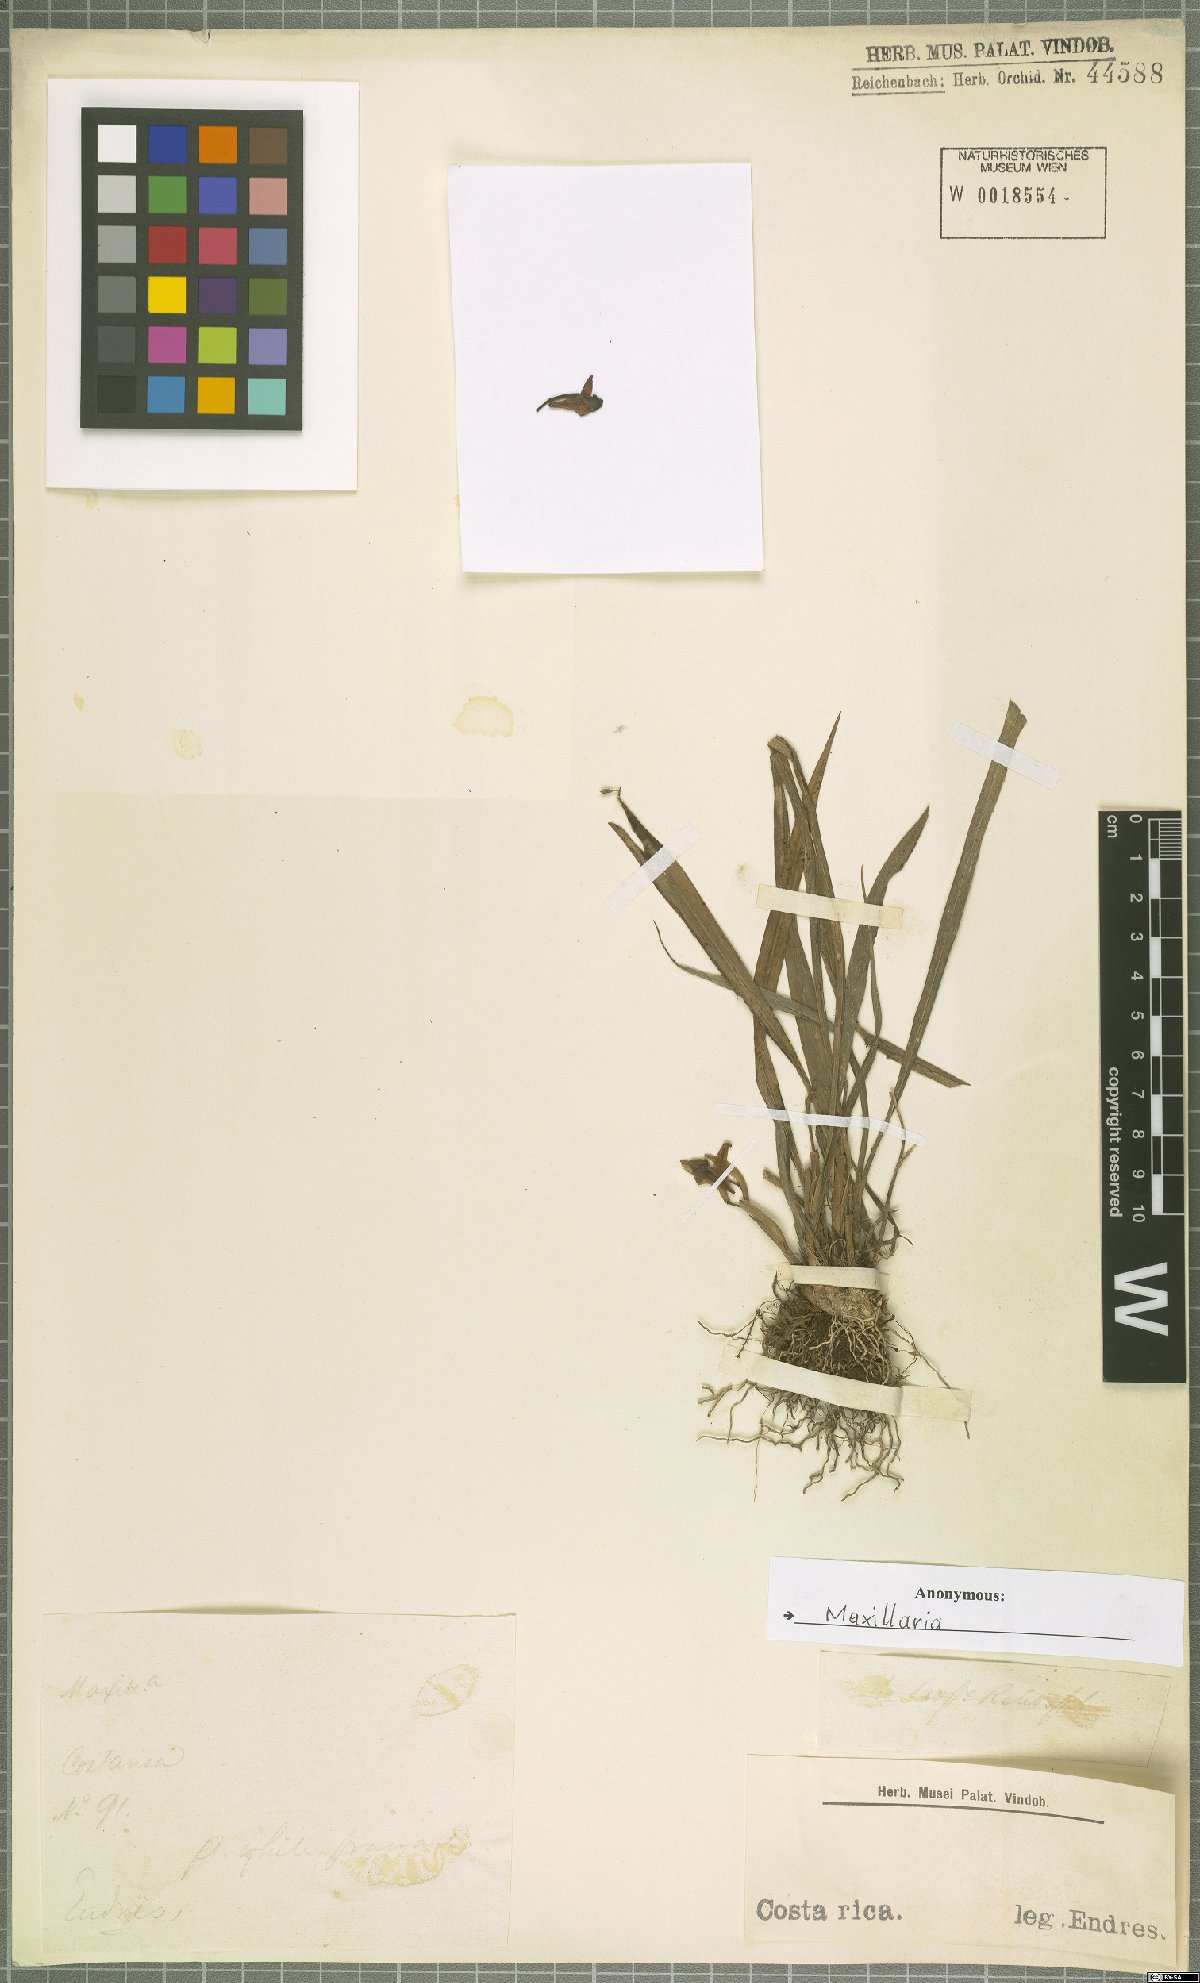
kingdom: Plantae
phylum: Tracheophyta
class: Liliopsida
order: Asparagales
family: Orchidaceae
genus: Maxillaria
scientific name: Maxillaria
